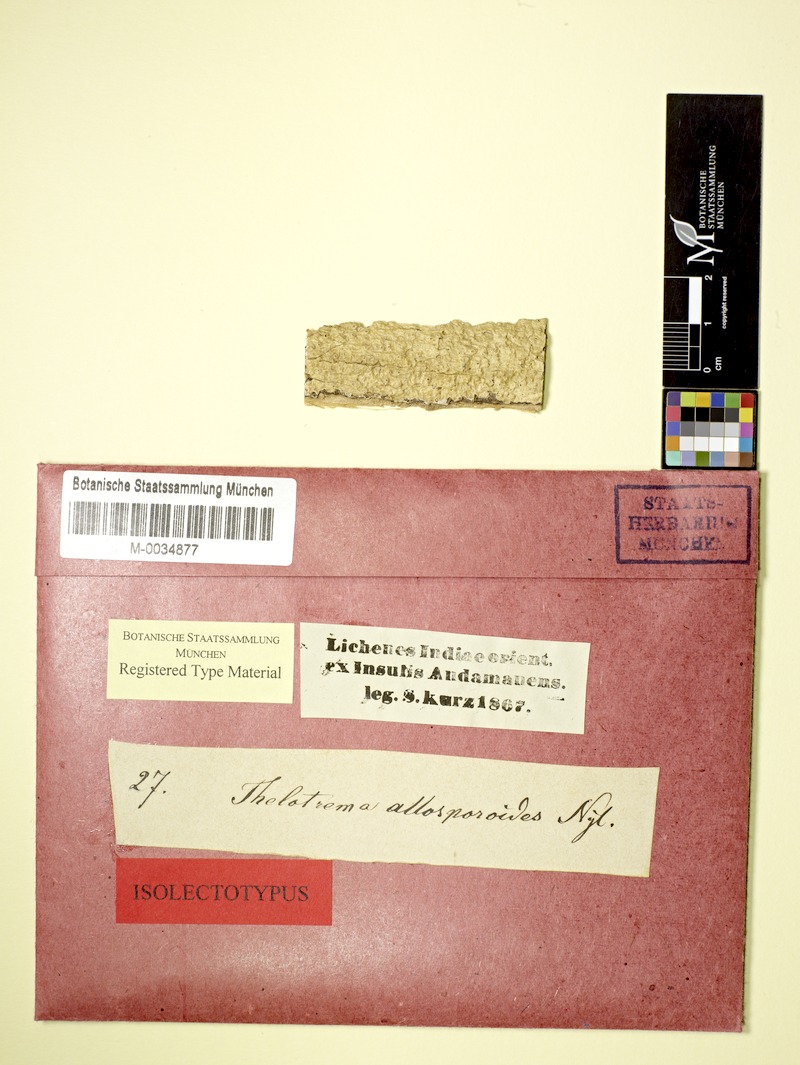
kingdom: Fungi
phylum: Ascomycota
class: Lecanoromycetes
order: Ostropales
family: Graphidaceae
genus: Thelotrema
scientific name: Thelotrema allosporoides
